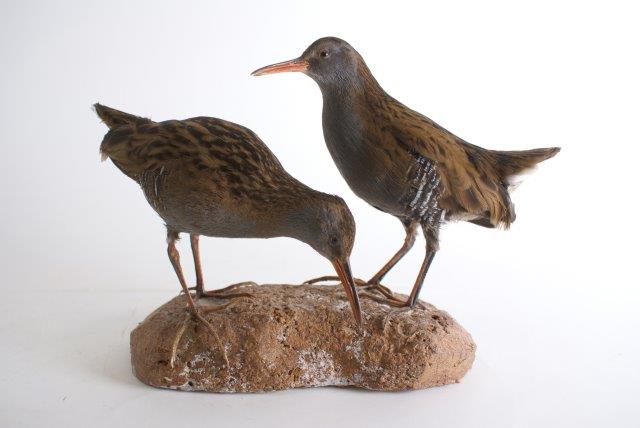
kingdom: Animalia
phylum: Chordata
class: Aves
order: Gruiformes
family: Rallidae
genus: Rallus
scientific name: Rallus aquaticus
